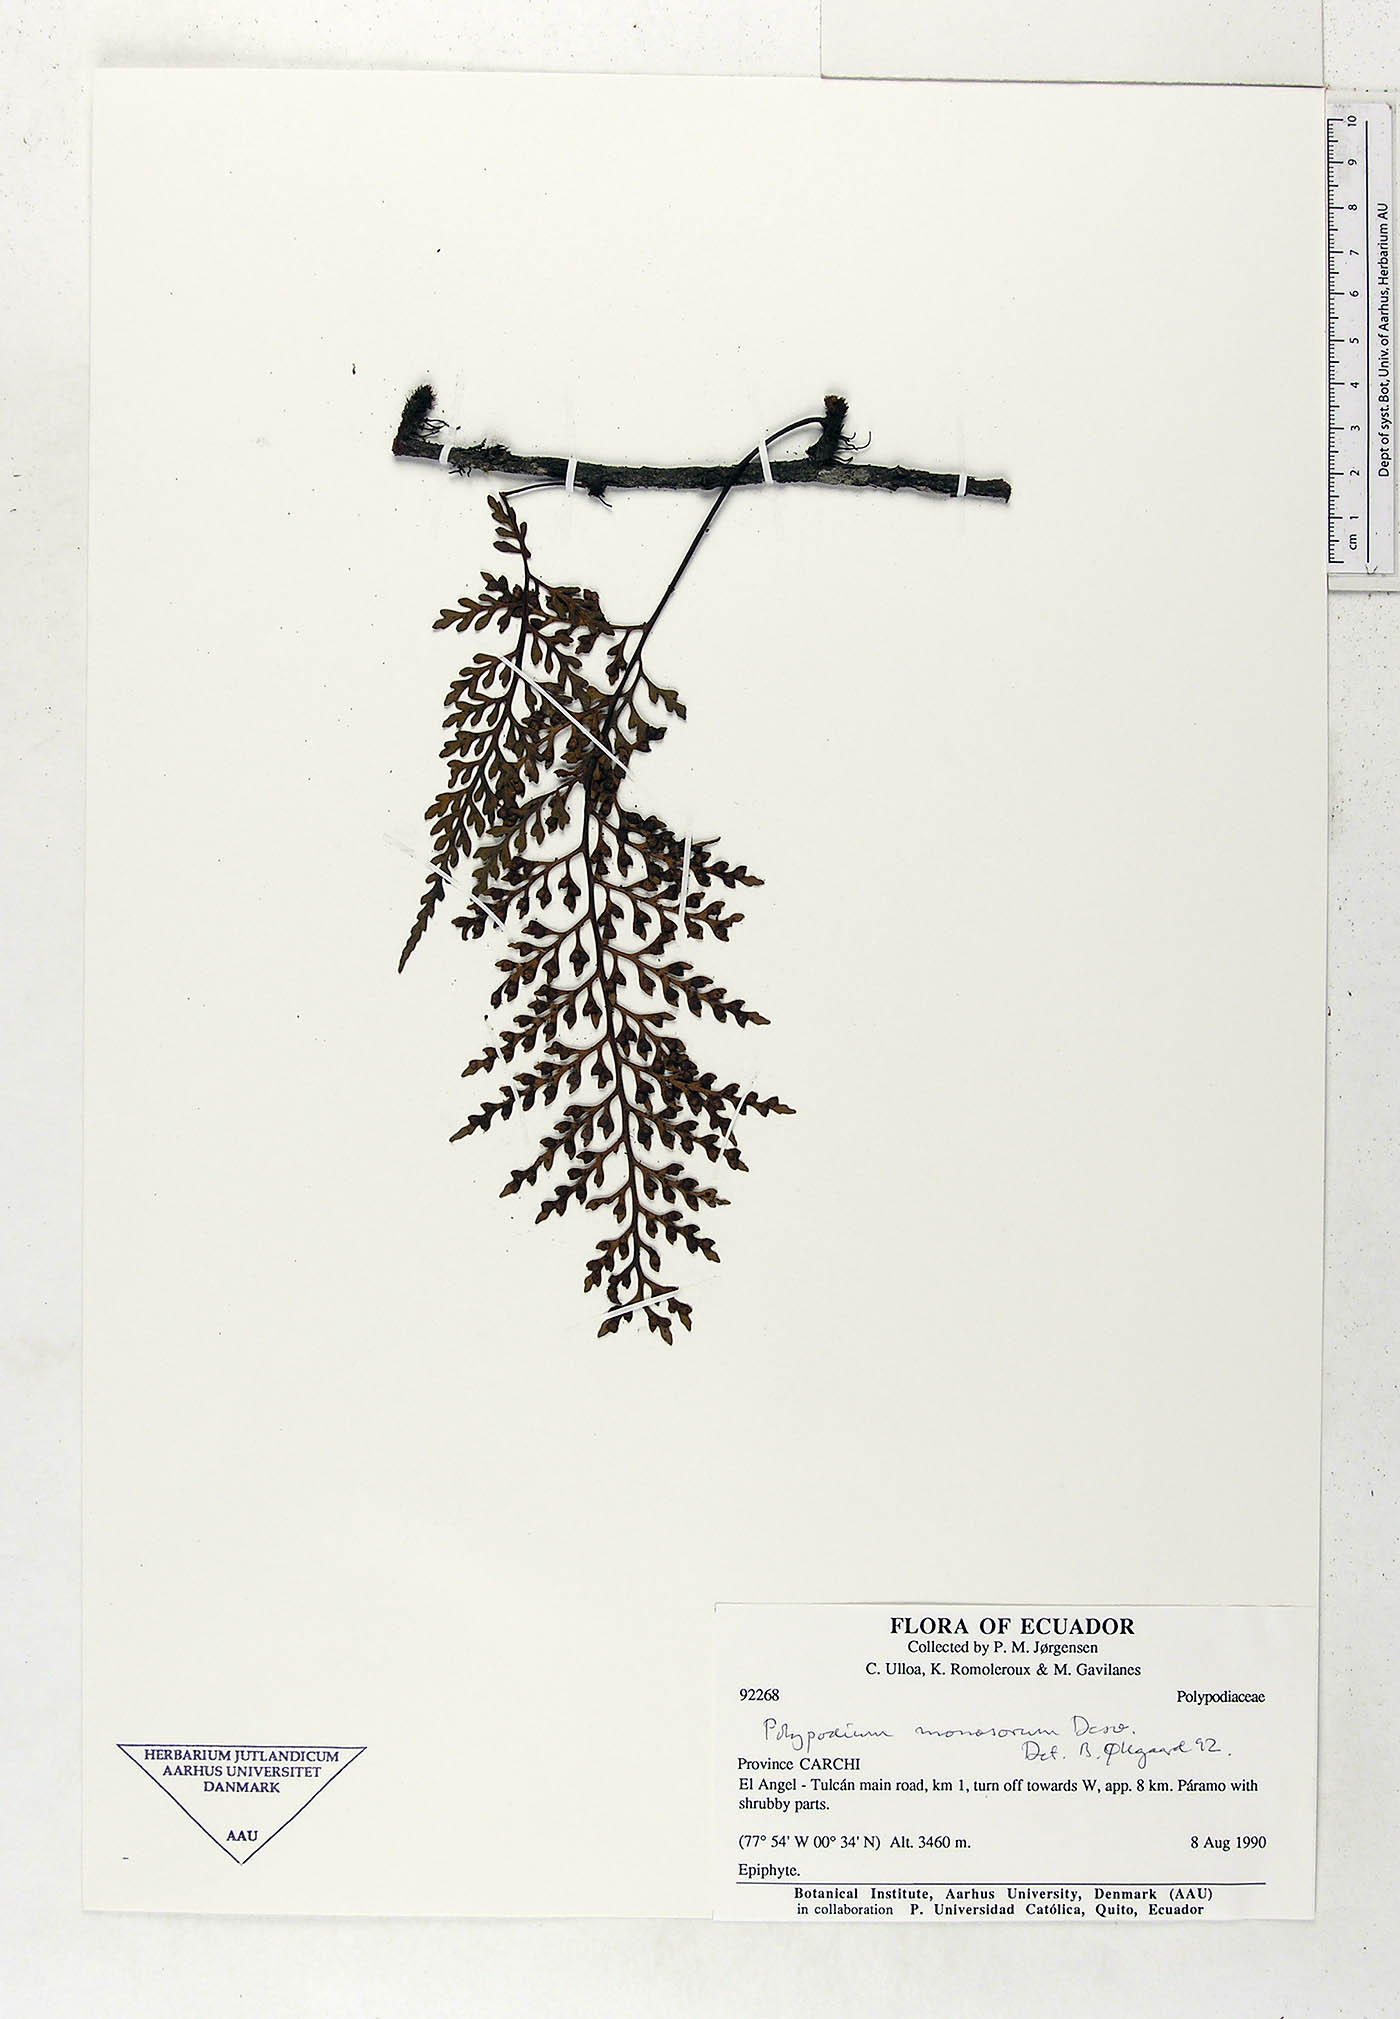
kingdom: Plantae
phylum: Tracheophyta
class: Polypodiopsida
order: Polypodiales
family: Polypodiaceae
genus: Pleopeltis
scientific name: Pleopeltis monosora
